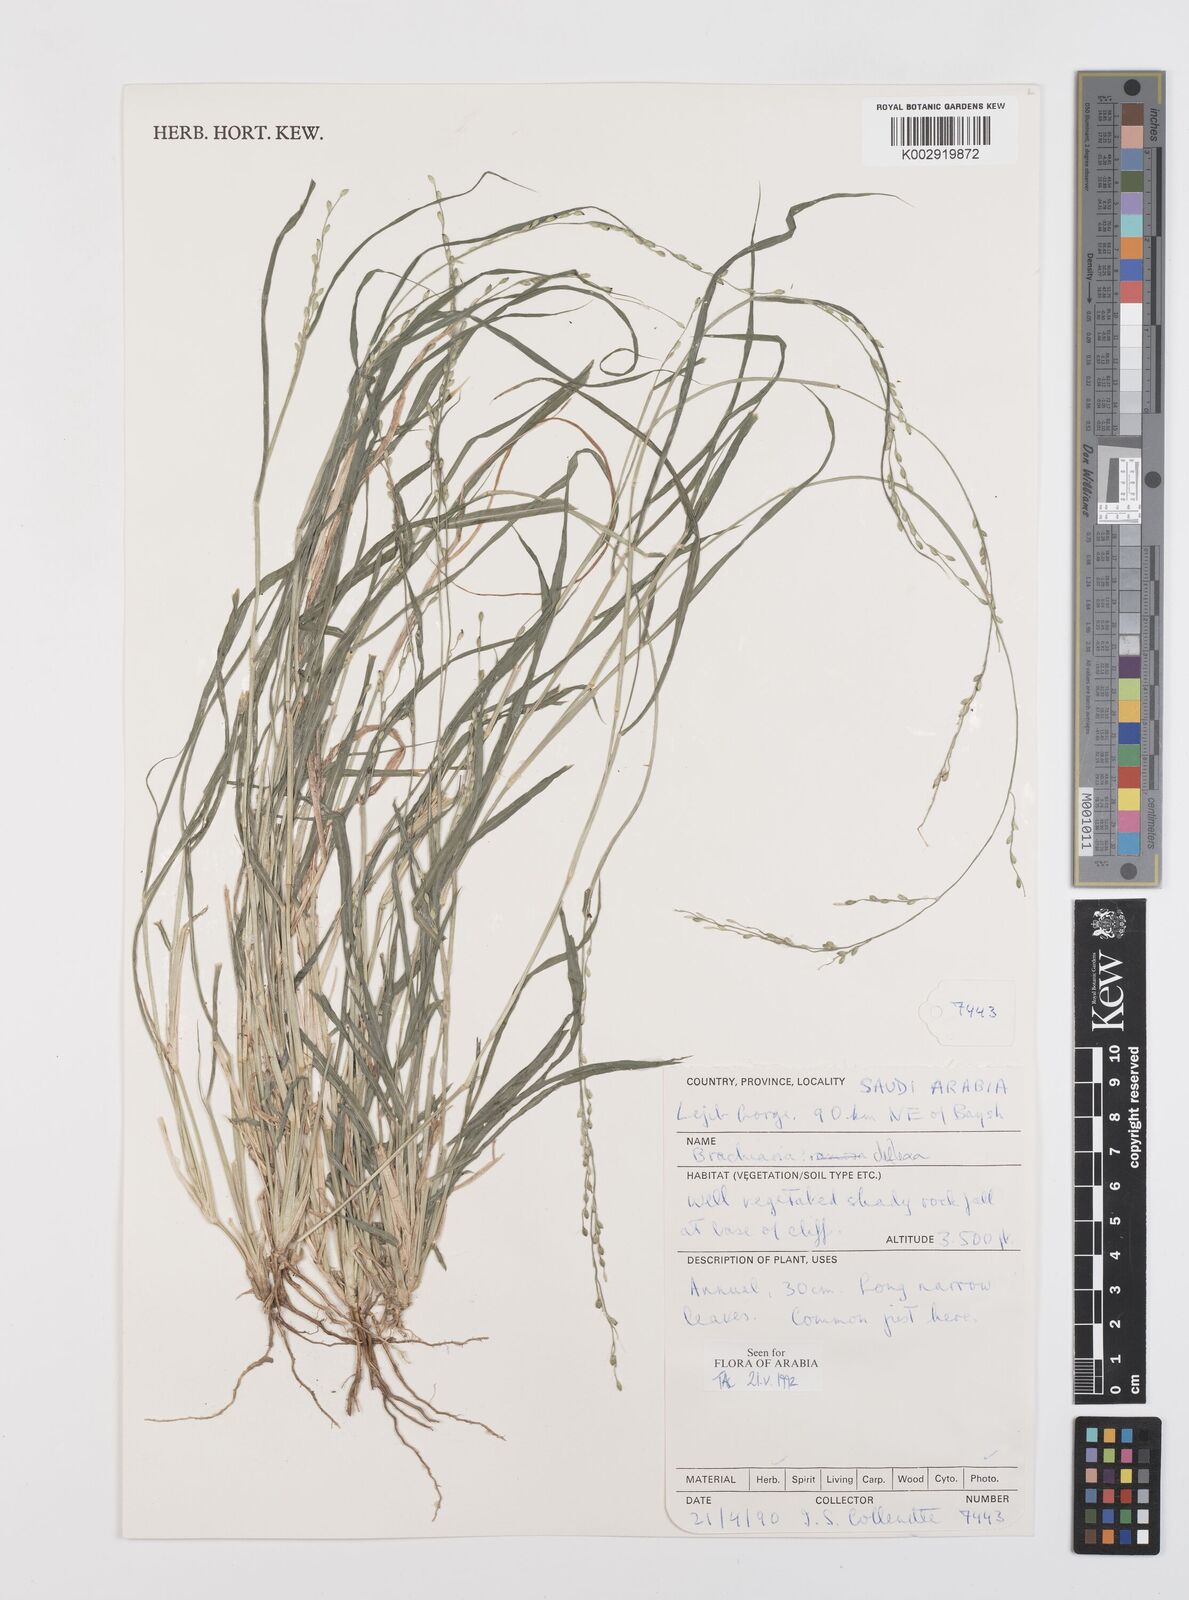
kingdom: Plantae
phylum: Tracheophyta
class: Liliopsida
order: Poales
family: Poaceae
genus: Urochloa
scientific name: Urochloa deflexa
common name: Guinea millet
